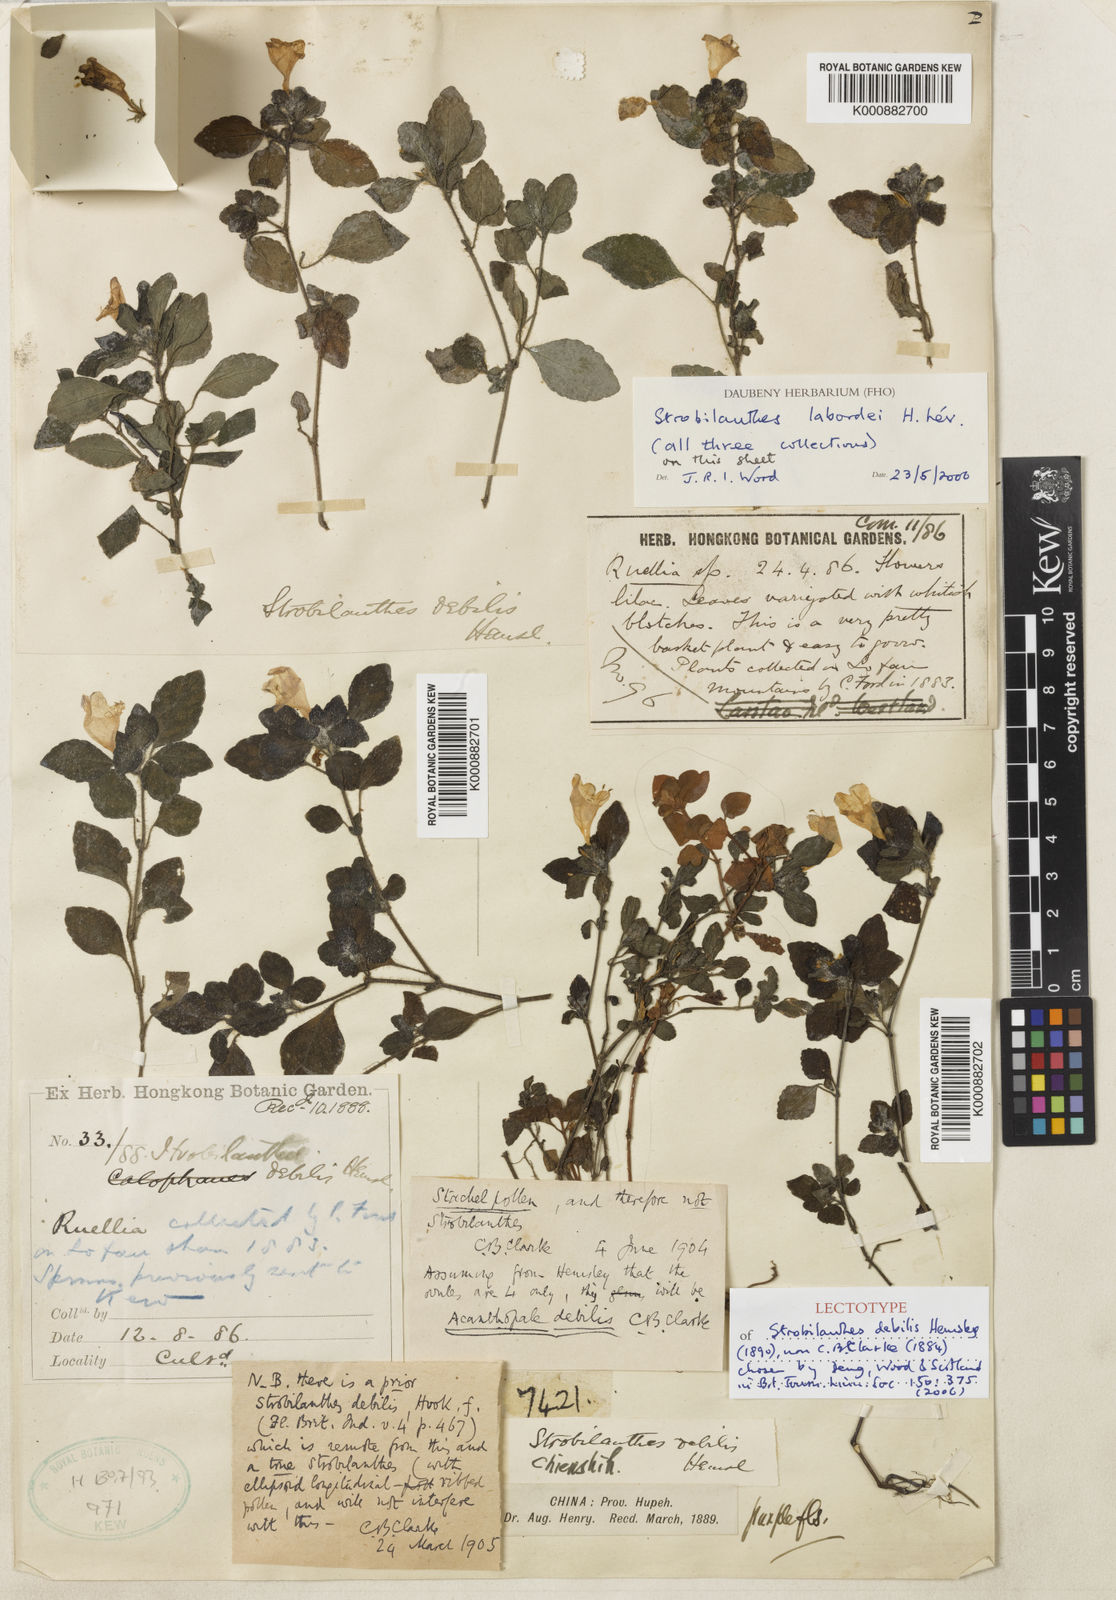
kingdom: Plantae
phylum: Tracheophyta
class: Magnoliopsida
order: Lamiales
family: Acanthaceae
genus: Strobilanthes
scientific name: Strobilanthes
